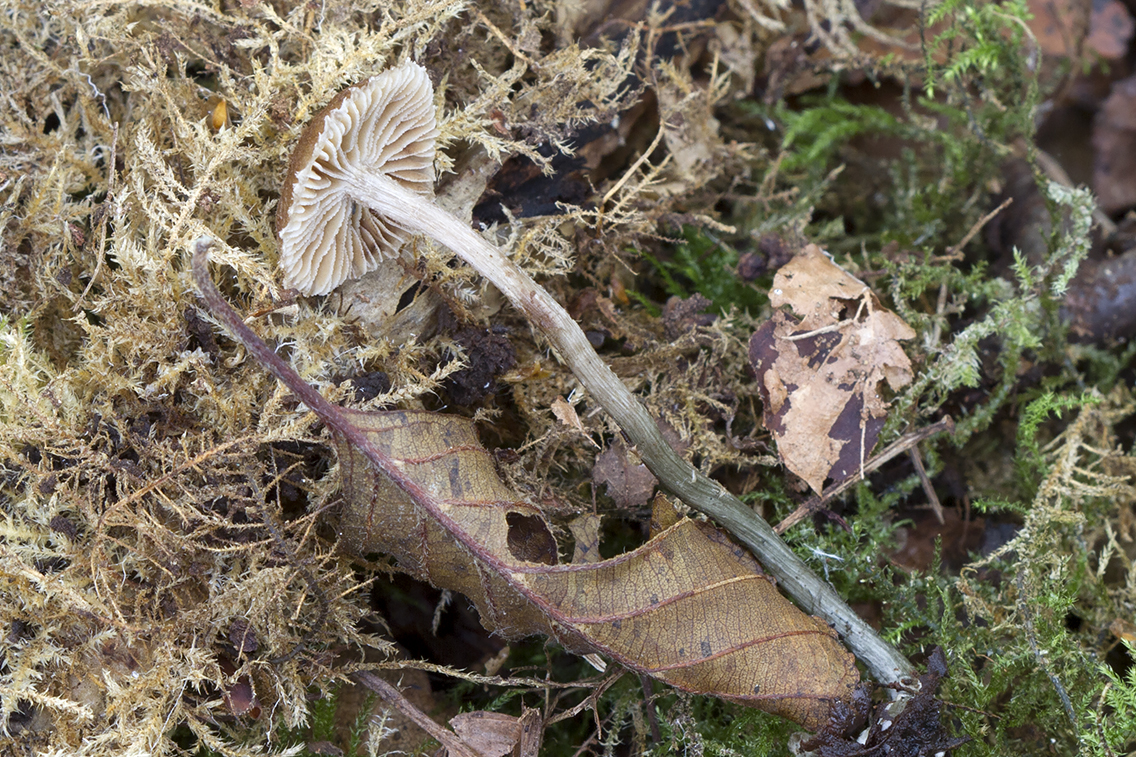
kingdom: Fungi
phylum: Basidiomycota
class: Agaricomycetes
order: Agaricales
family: Inocybaceae
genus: Inosperma
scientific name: Inosperma calamistratum
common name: grønfodet trævlhat
